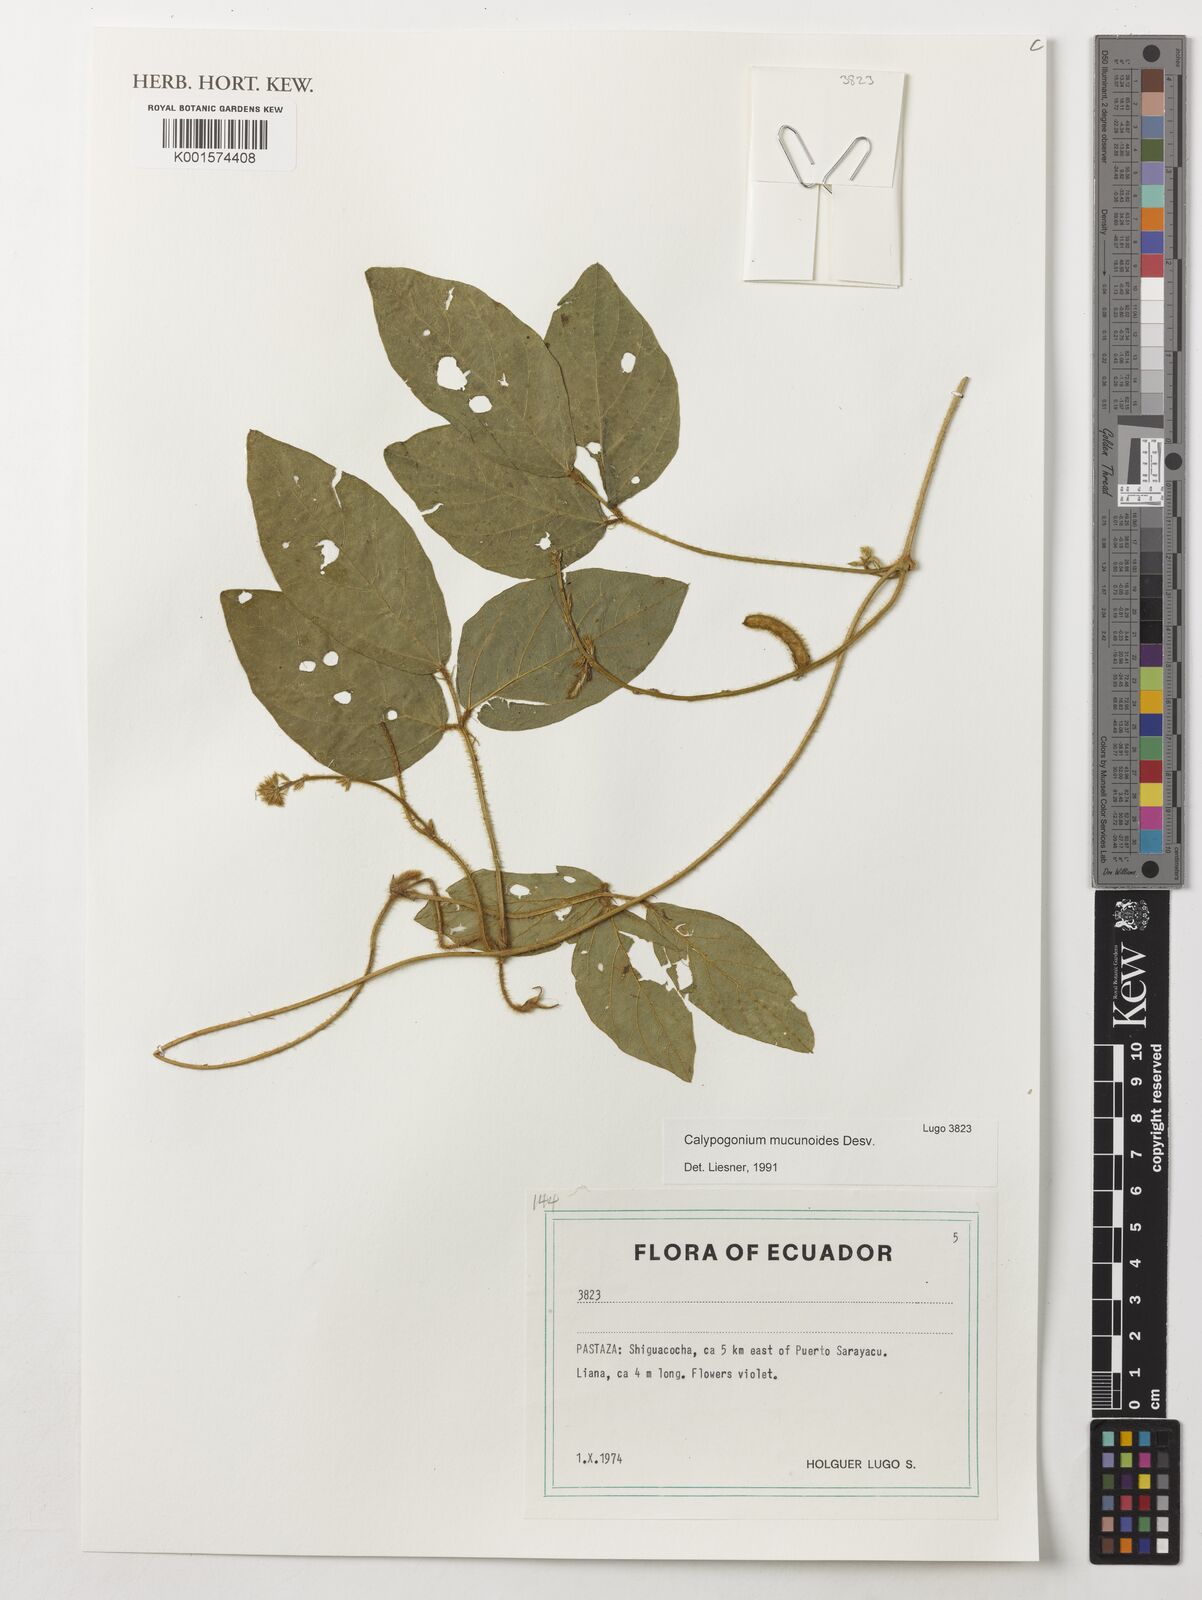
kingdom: Plantae
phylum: Tracheophyta
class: Magnoliopsida
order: Fabales
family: Fabaceae
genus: Calopogonium
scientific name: Calopogonium mucunoides
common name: Calopo
